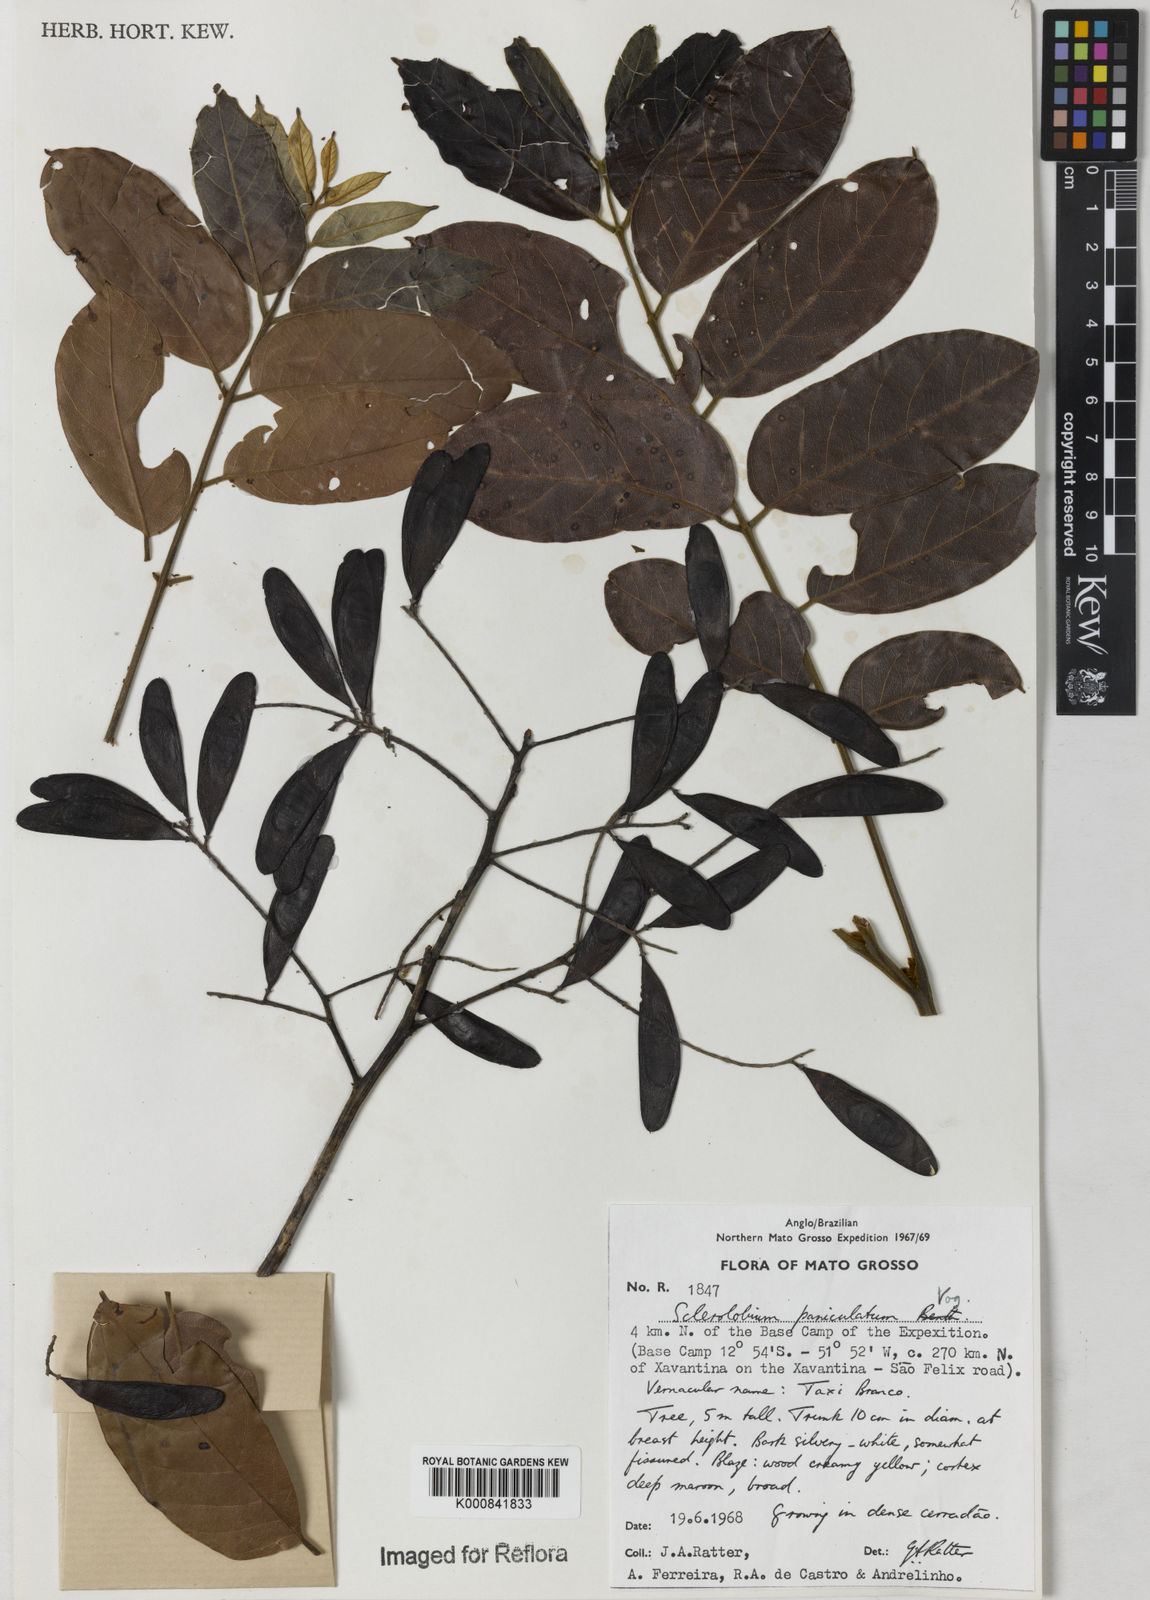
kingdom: Plantae
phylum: Tracheophyta
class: Magnoliopsida
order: Fabales
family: Fabaceae
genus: Tachigali
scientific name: Tachigali vulgaris
